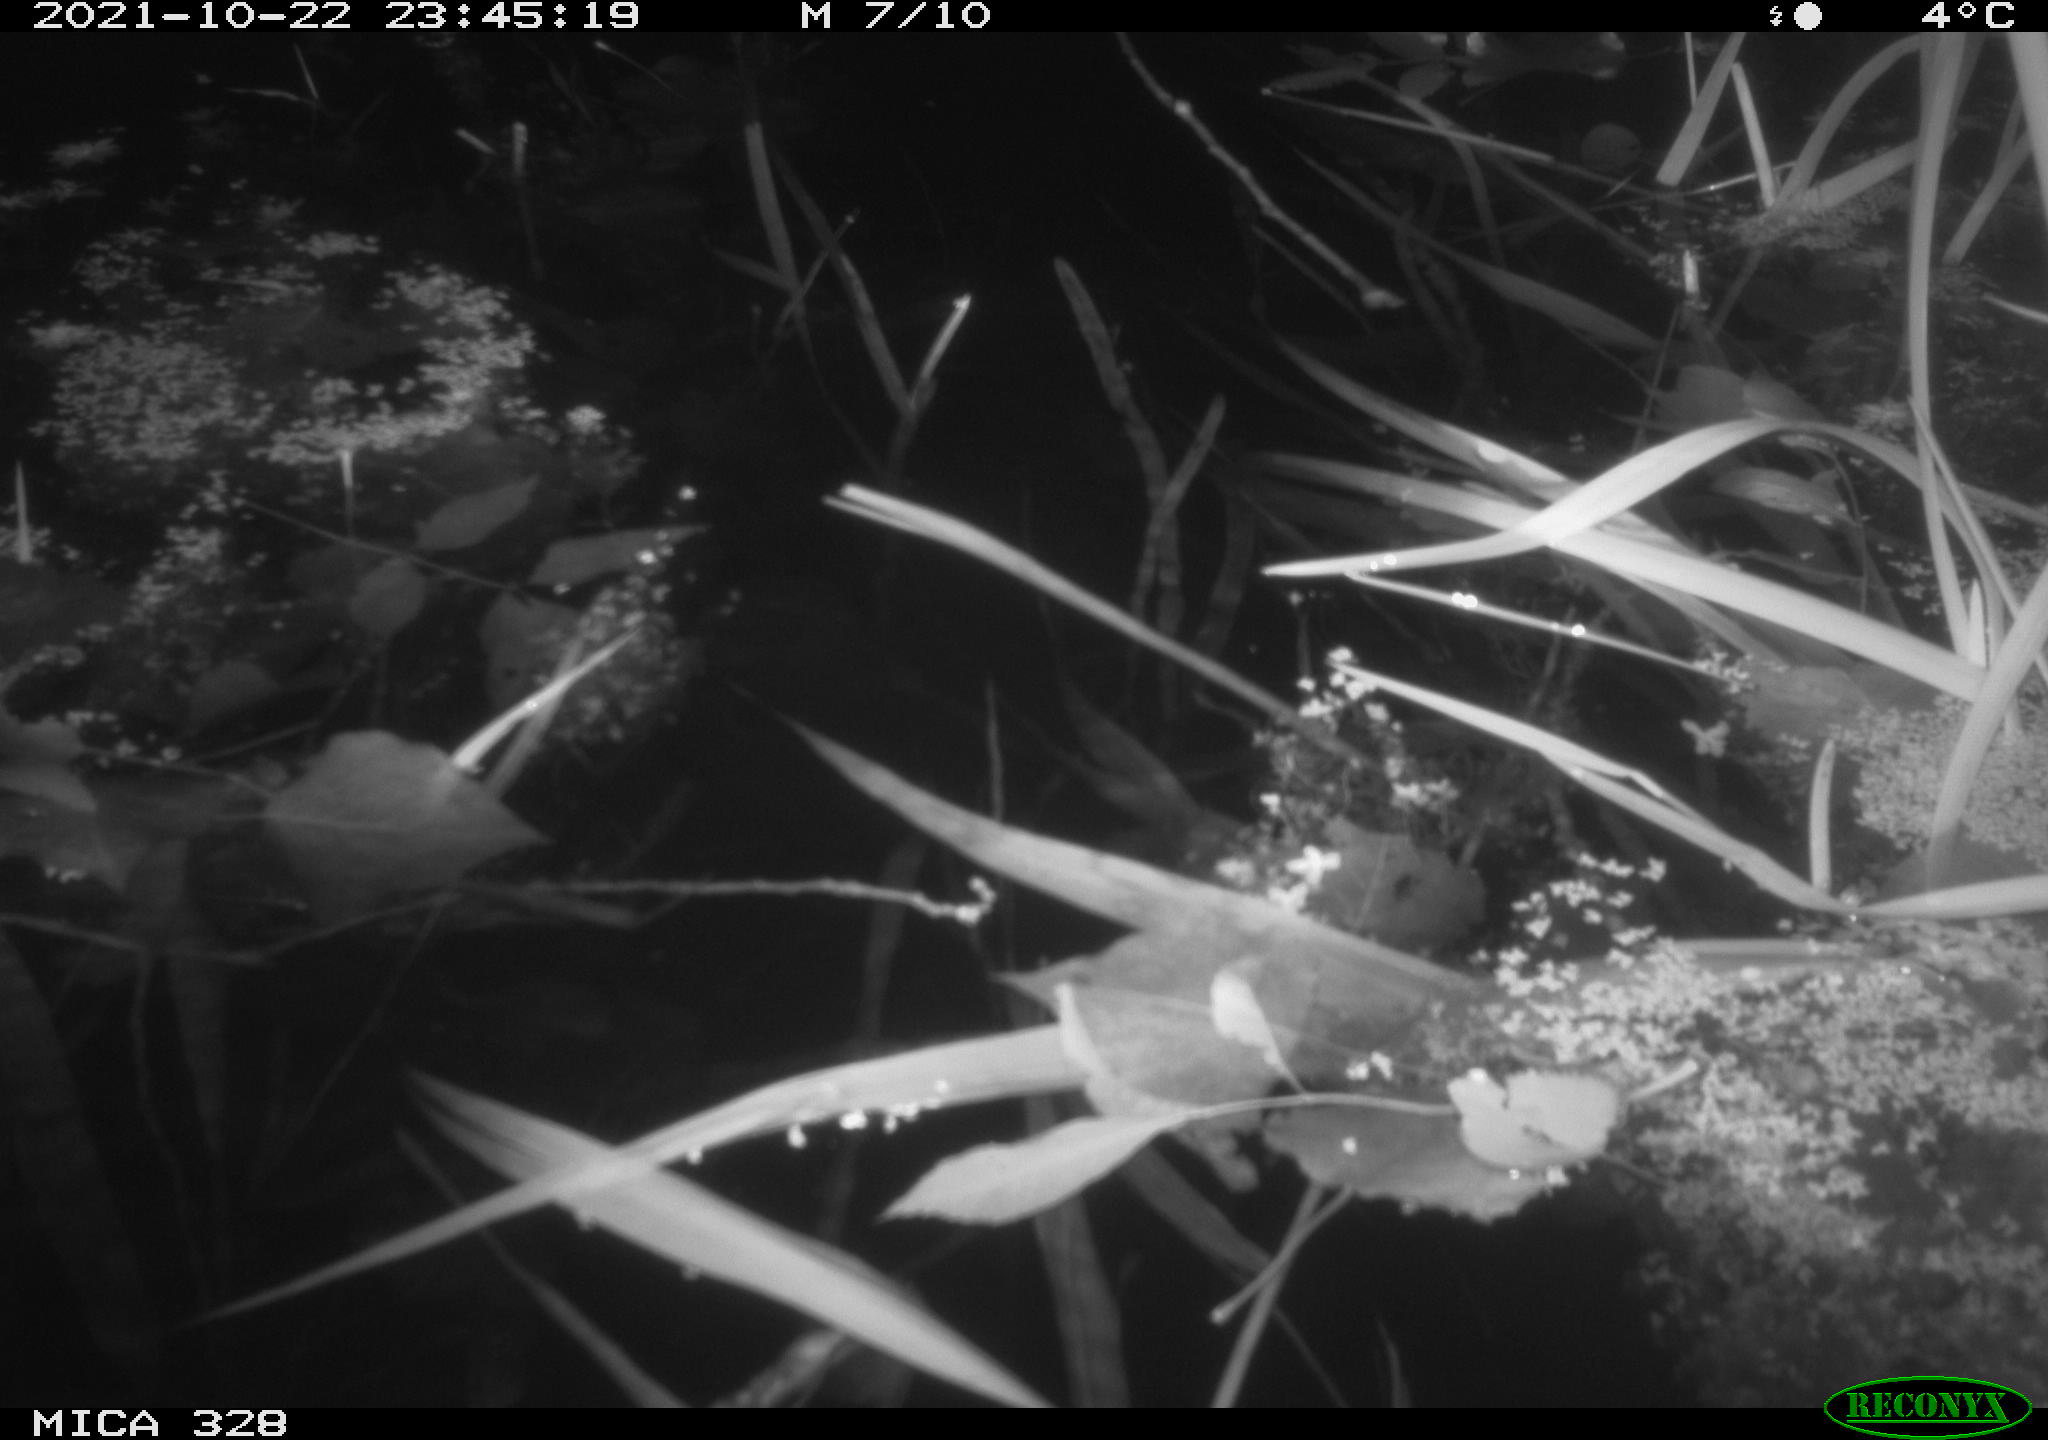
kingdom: Animalia
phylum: Chordata
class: Mammalia
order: Rodentia
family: Cricetidae
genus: Ondatra
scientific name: Ondatra zibethicus
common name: Muskrat
